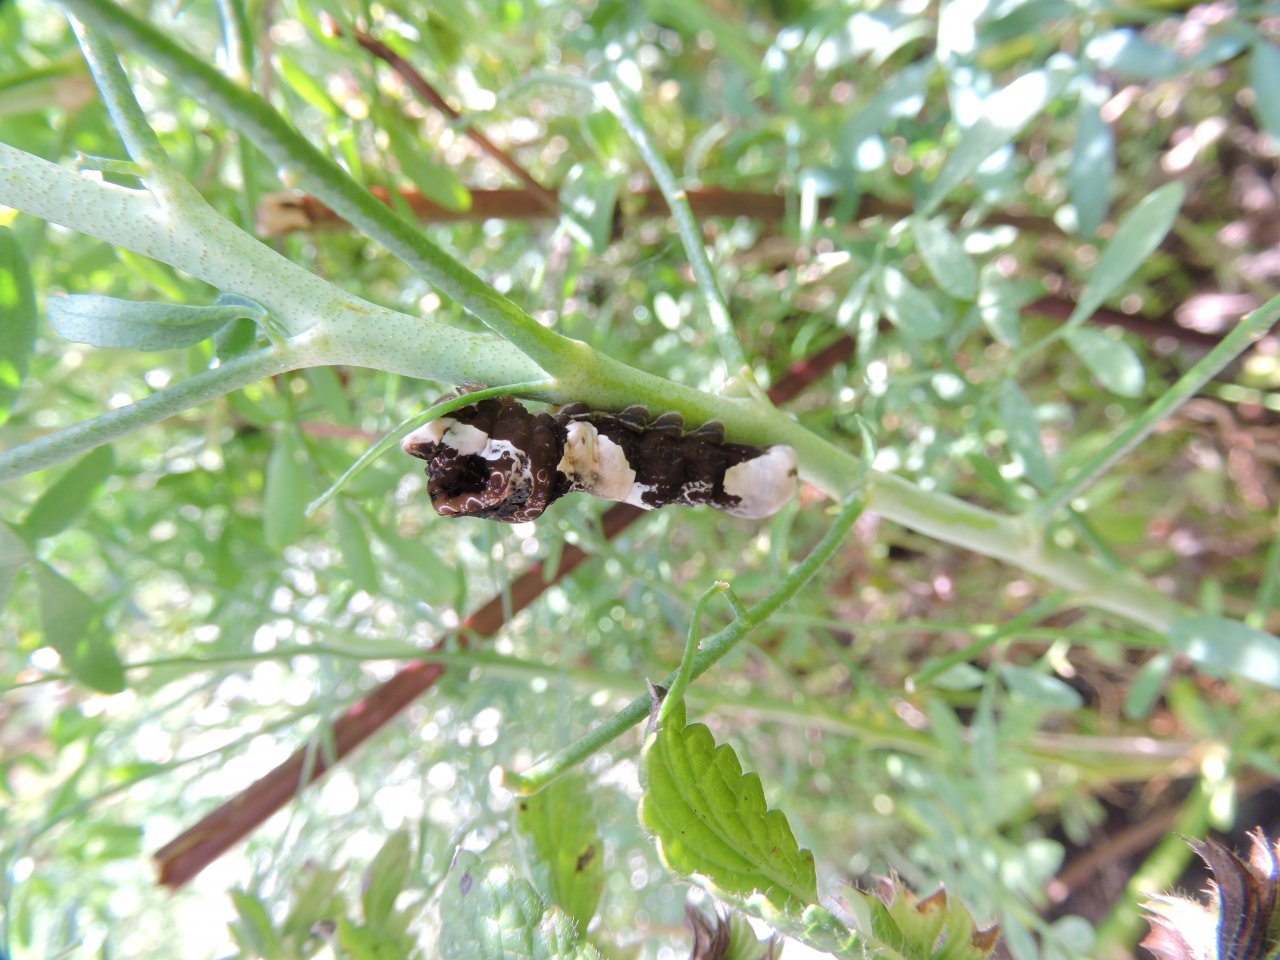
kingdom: Animalia
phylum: Arthropoda
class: Insecta
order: Lepidoptera
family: Papilionidae
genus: Papilio
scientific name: Papilio cresphontes
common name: Eastern Giant Swallowtail
